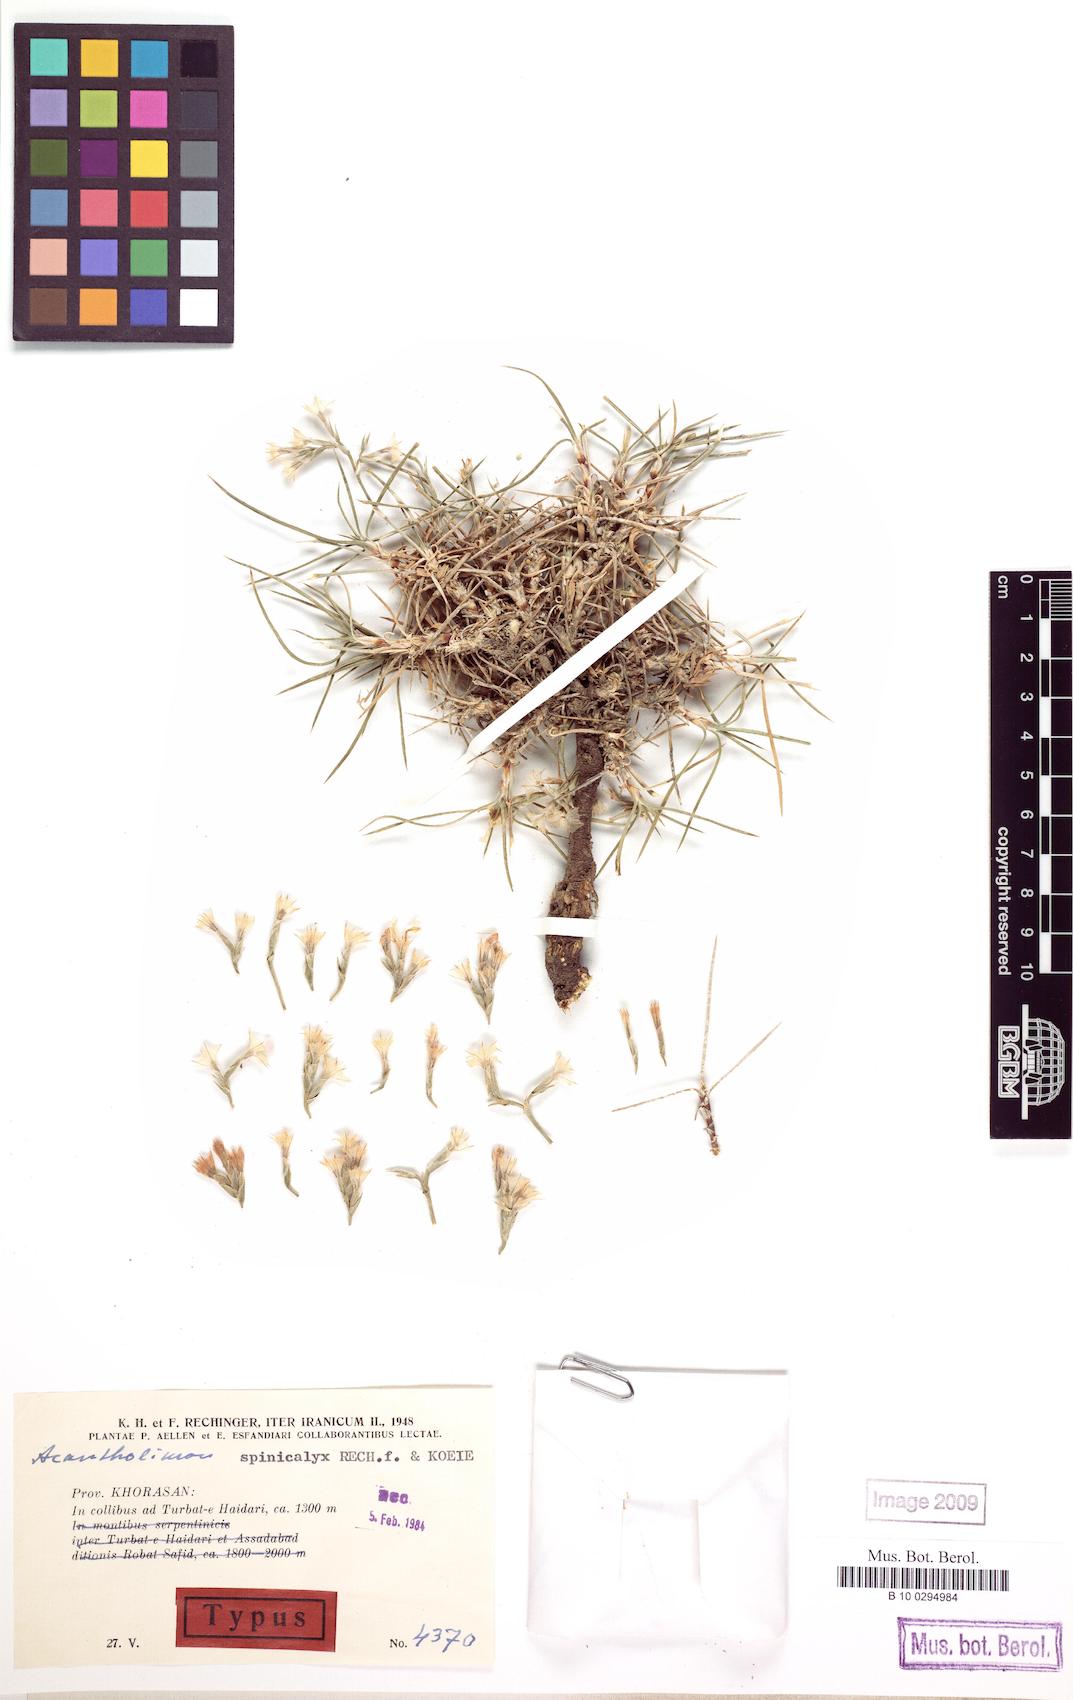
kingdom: Plantae
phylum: Tracheophyta
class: Magnoliopsida
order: Caryophyllales
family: Plumbaginaceae
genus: Acantholimon
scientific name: Acantholimon spinicalyx
